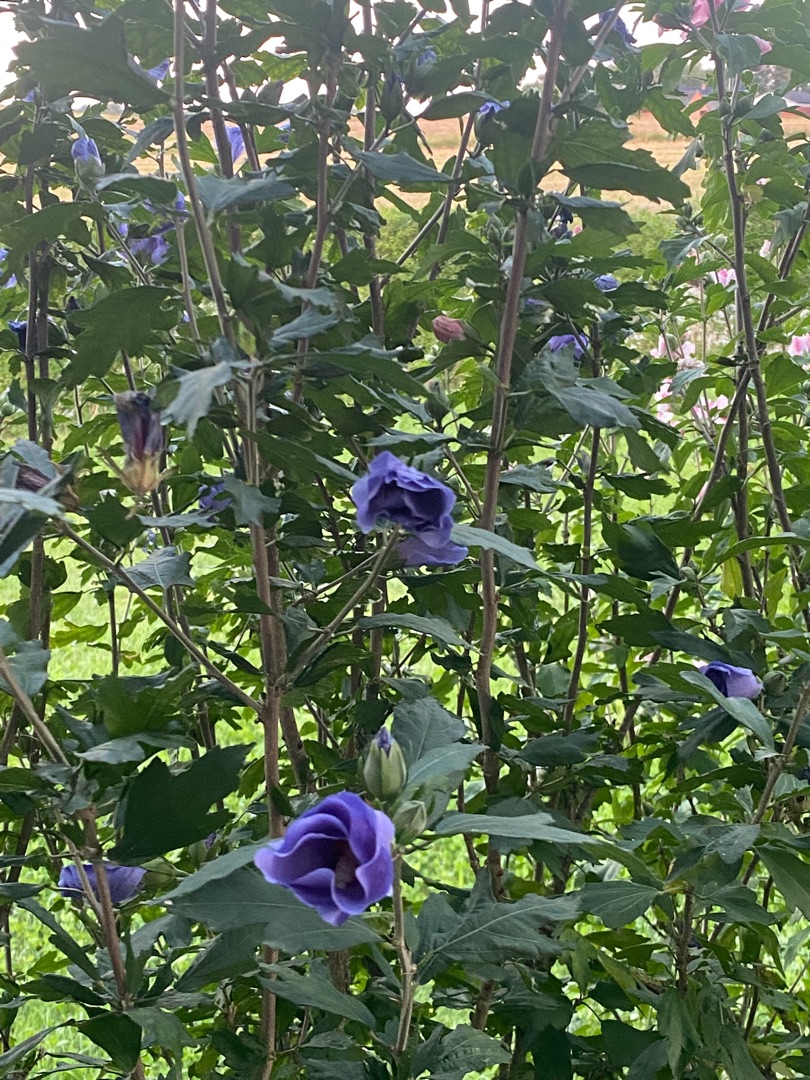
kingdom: Plantae
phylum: Tracheophyta
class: Magnoliopsida
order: Malvales
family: Malvaceae
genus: Hibiscus
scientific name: Hibiscus
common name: Hibiskusslægten
